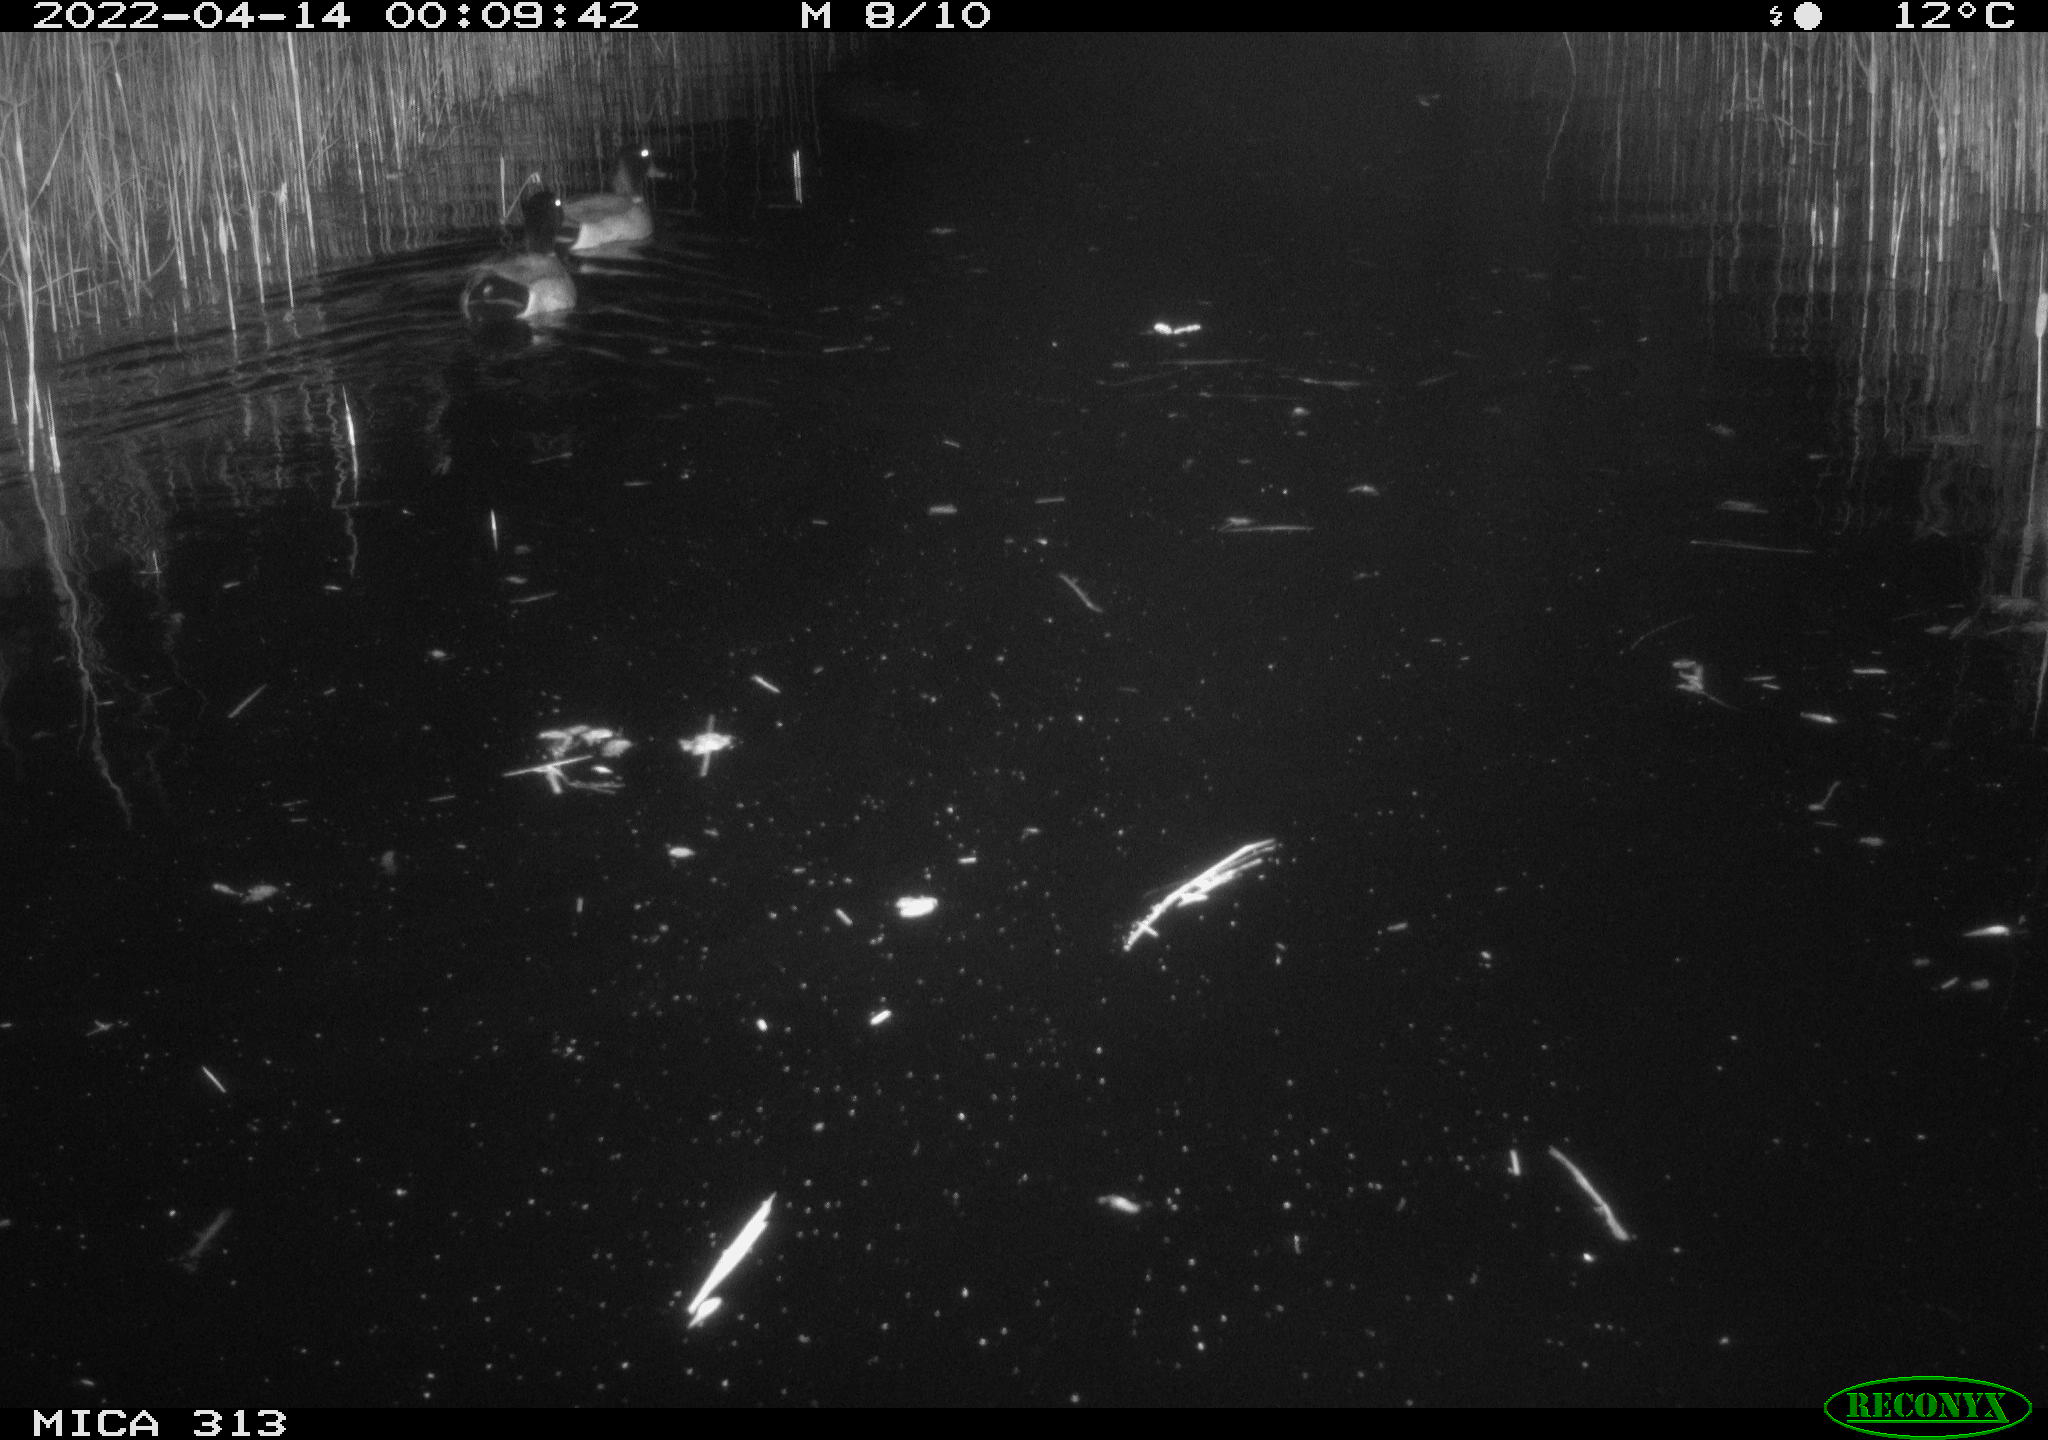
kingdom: Animalia
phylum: Chordata
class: Aves
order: Anseriformes
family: Anatidae
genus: Anas
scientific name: Anas platyrhynchos
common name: Mallard
